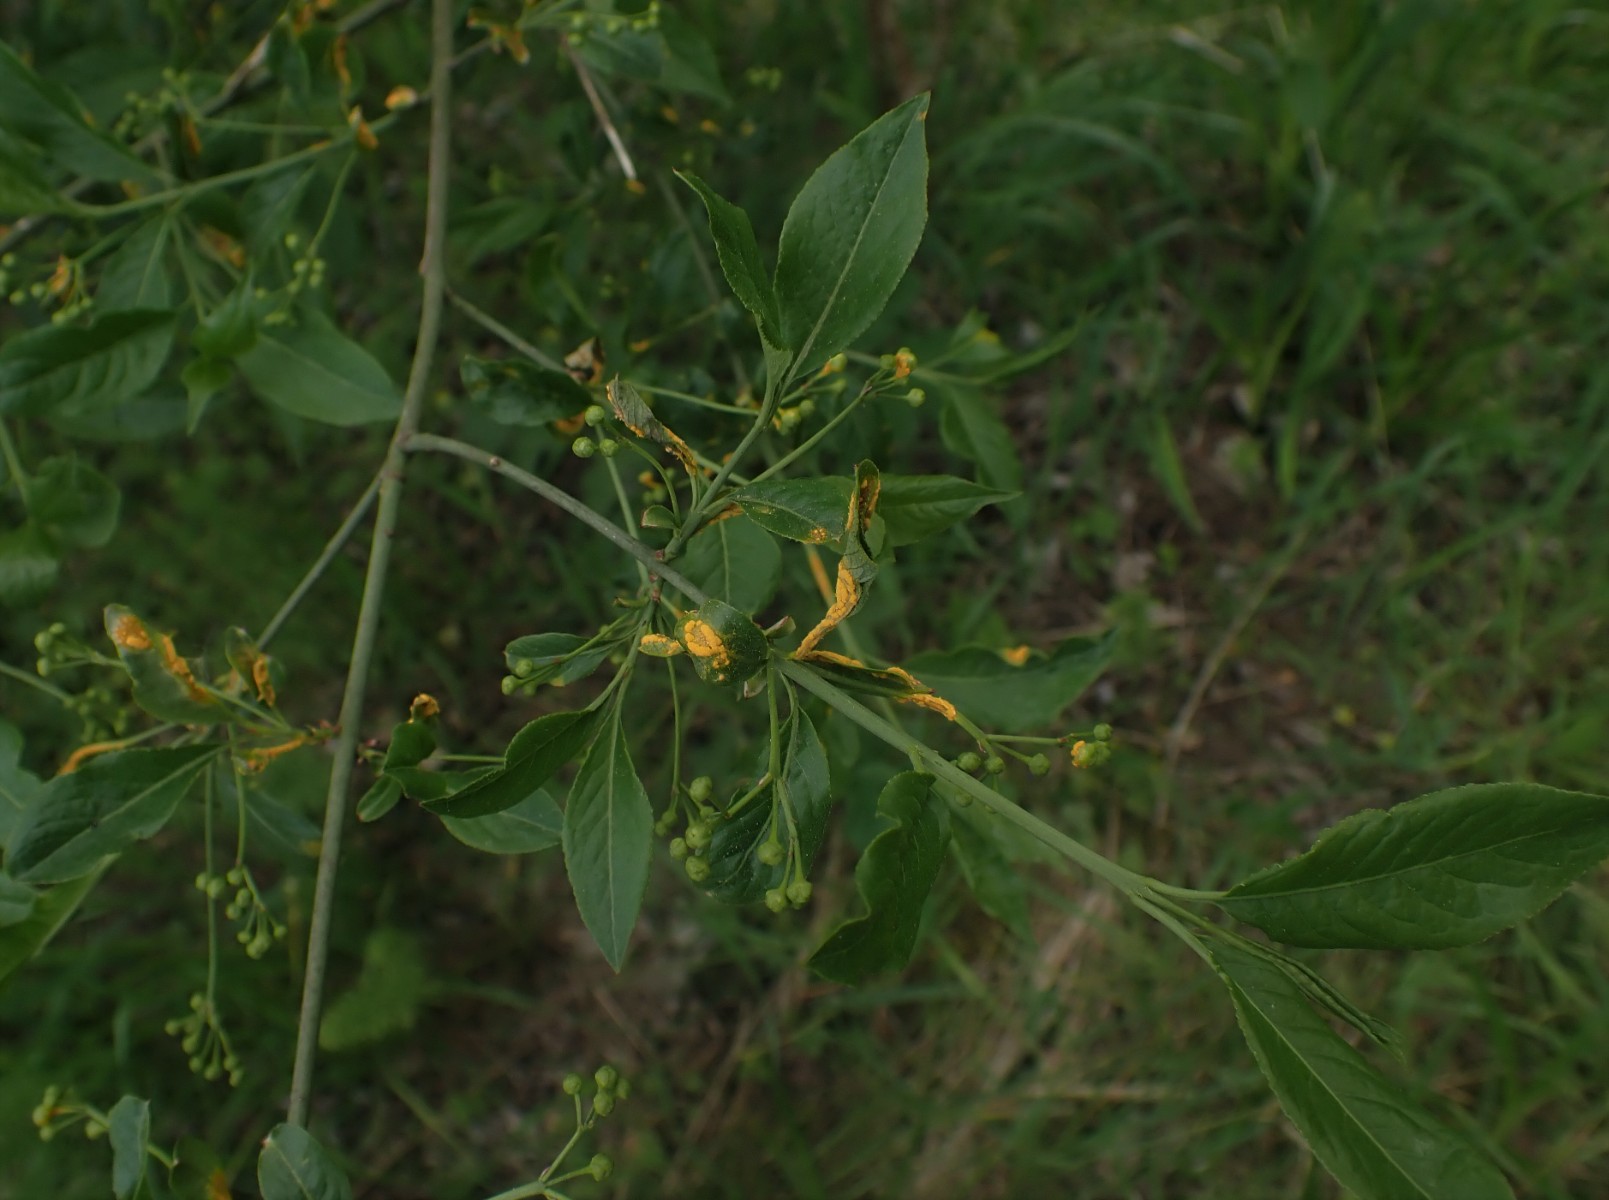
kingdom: Fungi
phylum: Basidiomycota
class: Pucciniomycetes
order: Pucciniales
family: Melampsoraceae
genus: Melampsora
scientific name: Melampsora epitea
